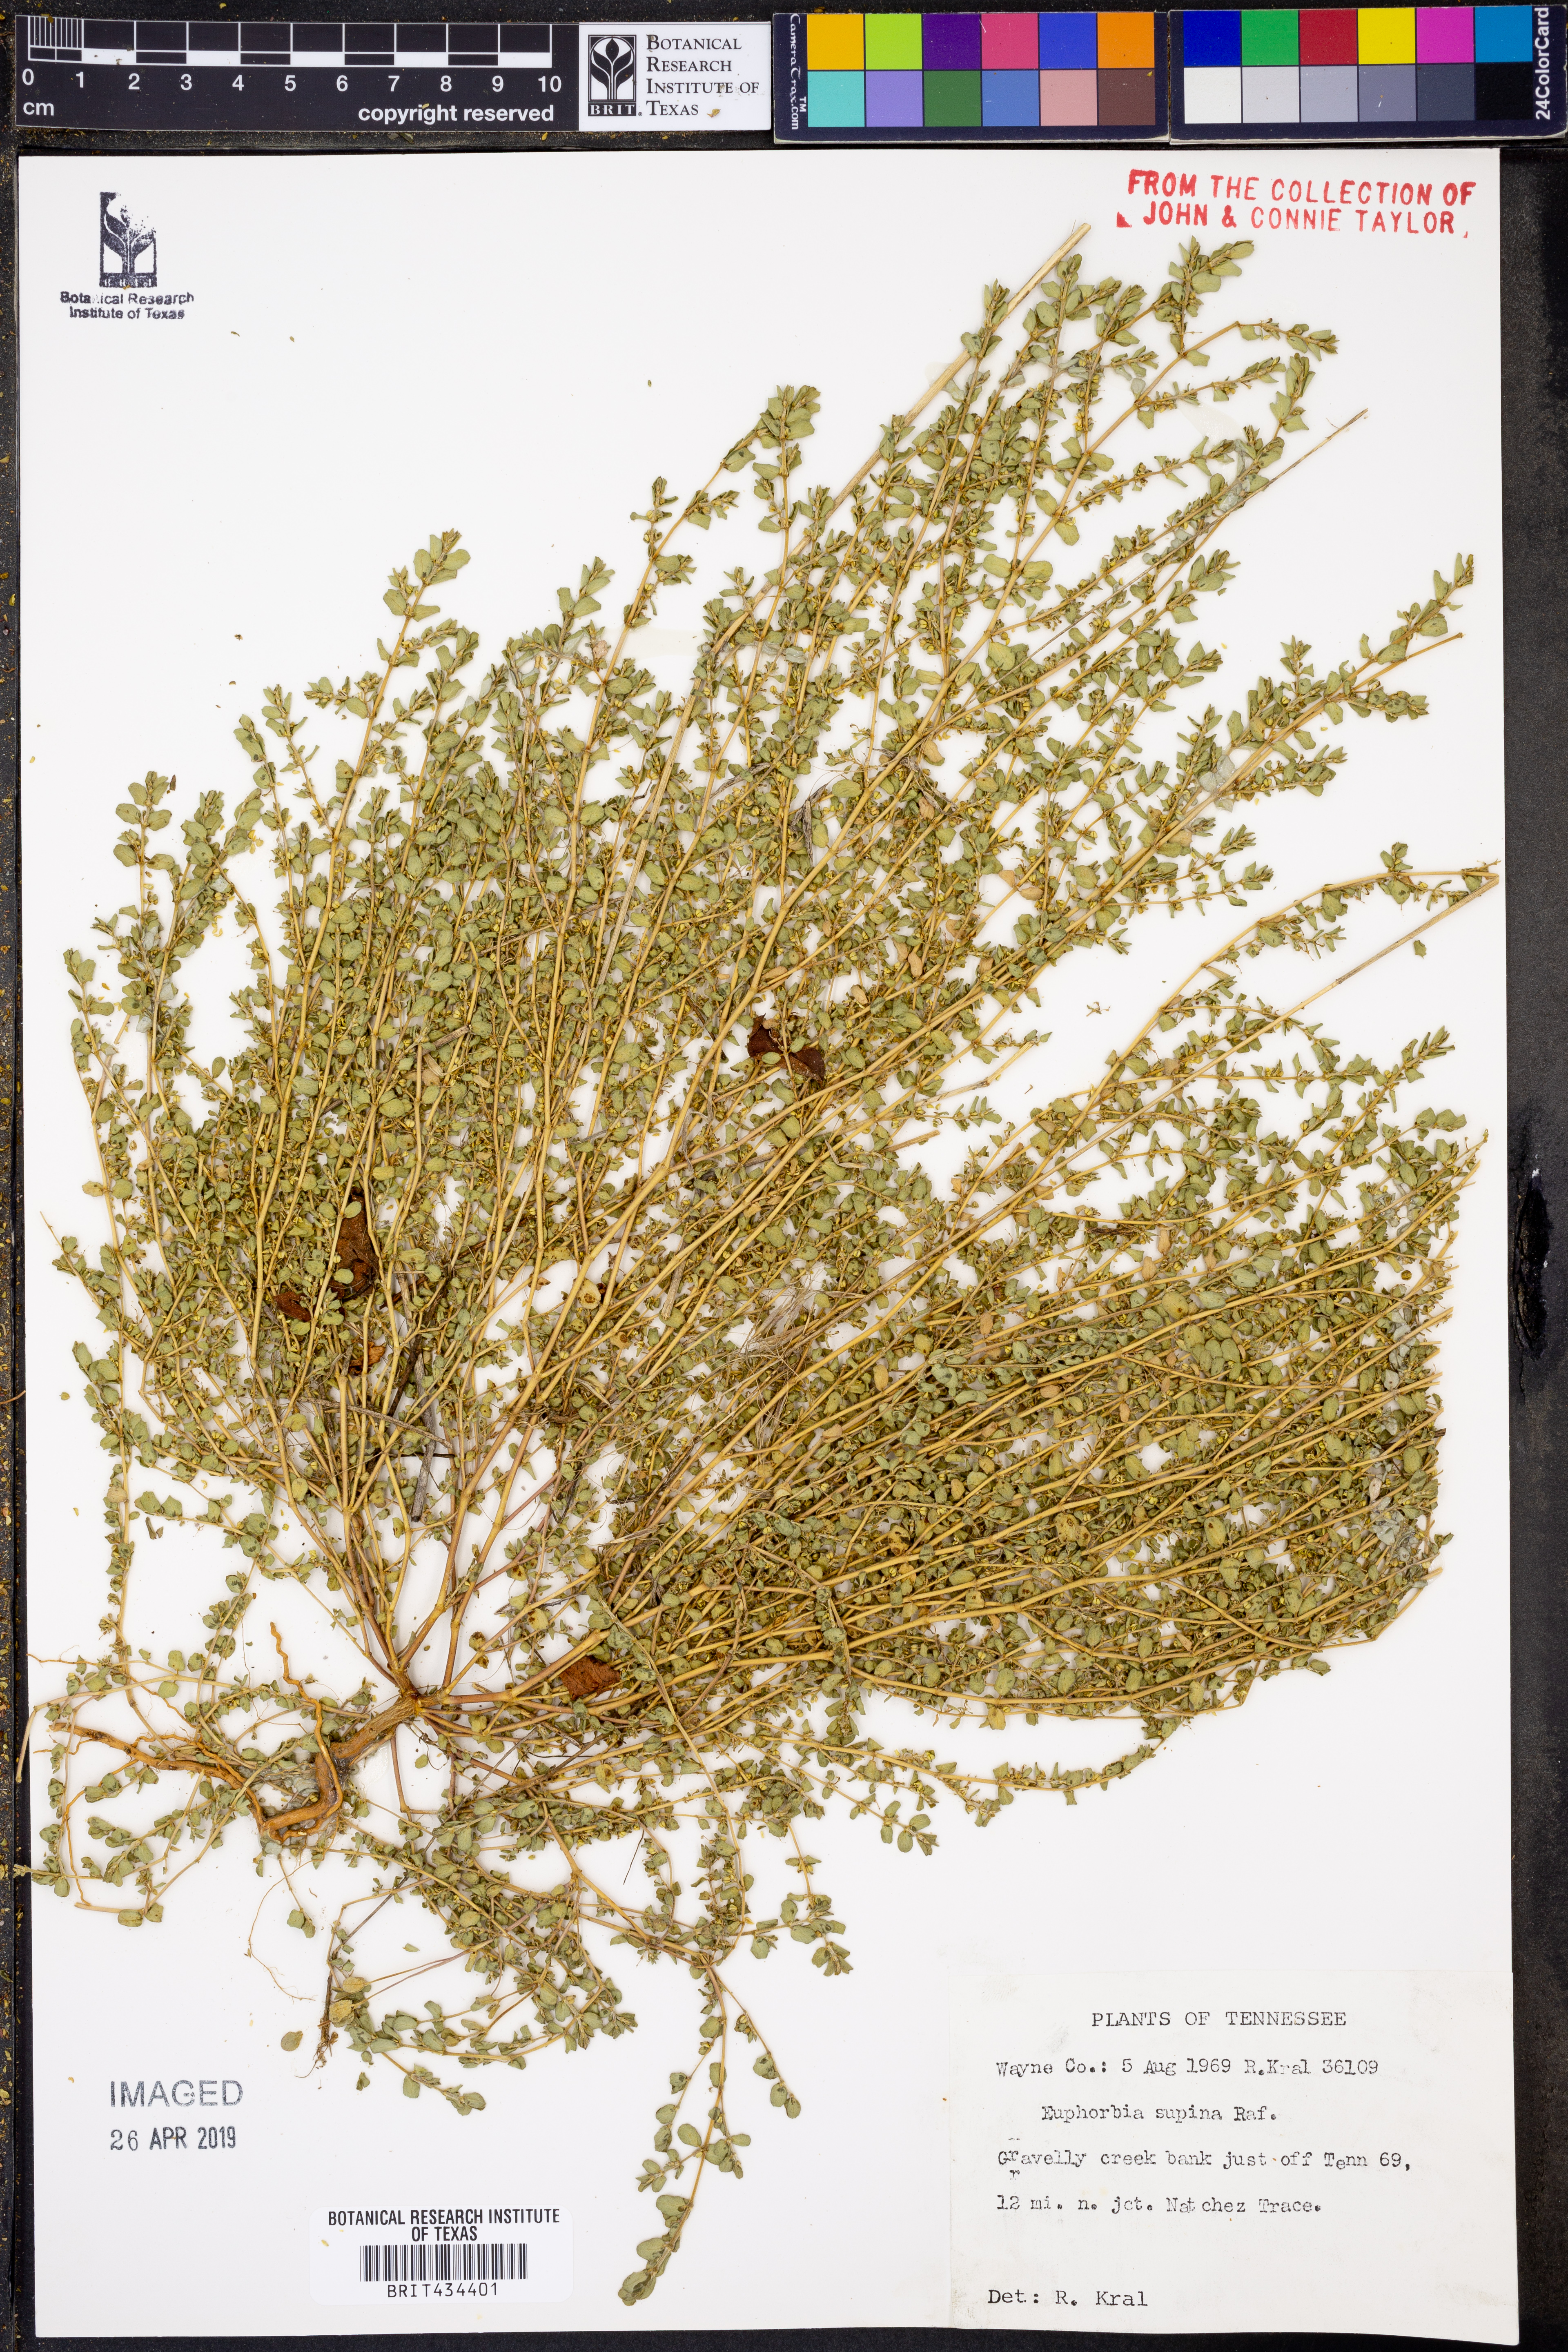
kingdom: Plantae
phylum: Tracheophyta
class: Magnoliopsida
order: Malpighiales
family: Euphorbiaceae
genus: Euphorbia
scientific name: Euphorbia maculata
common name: Spotted spurge
